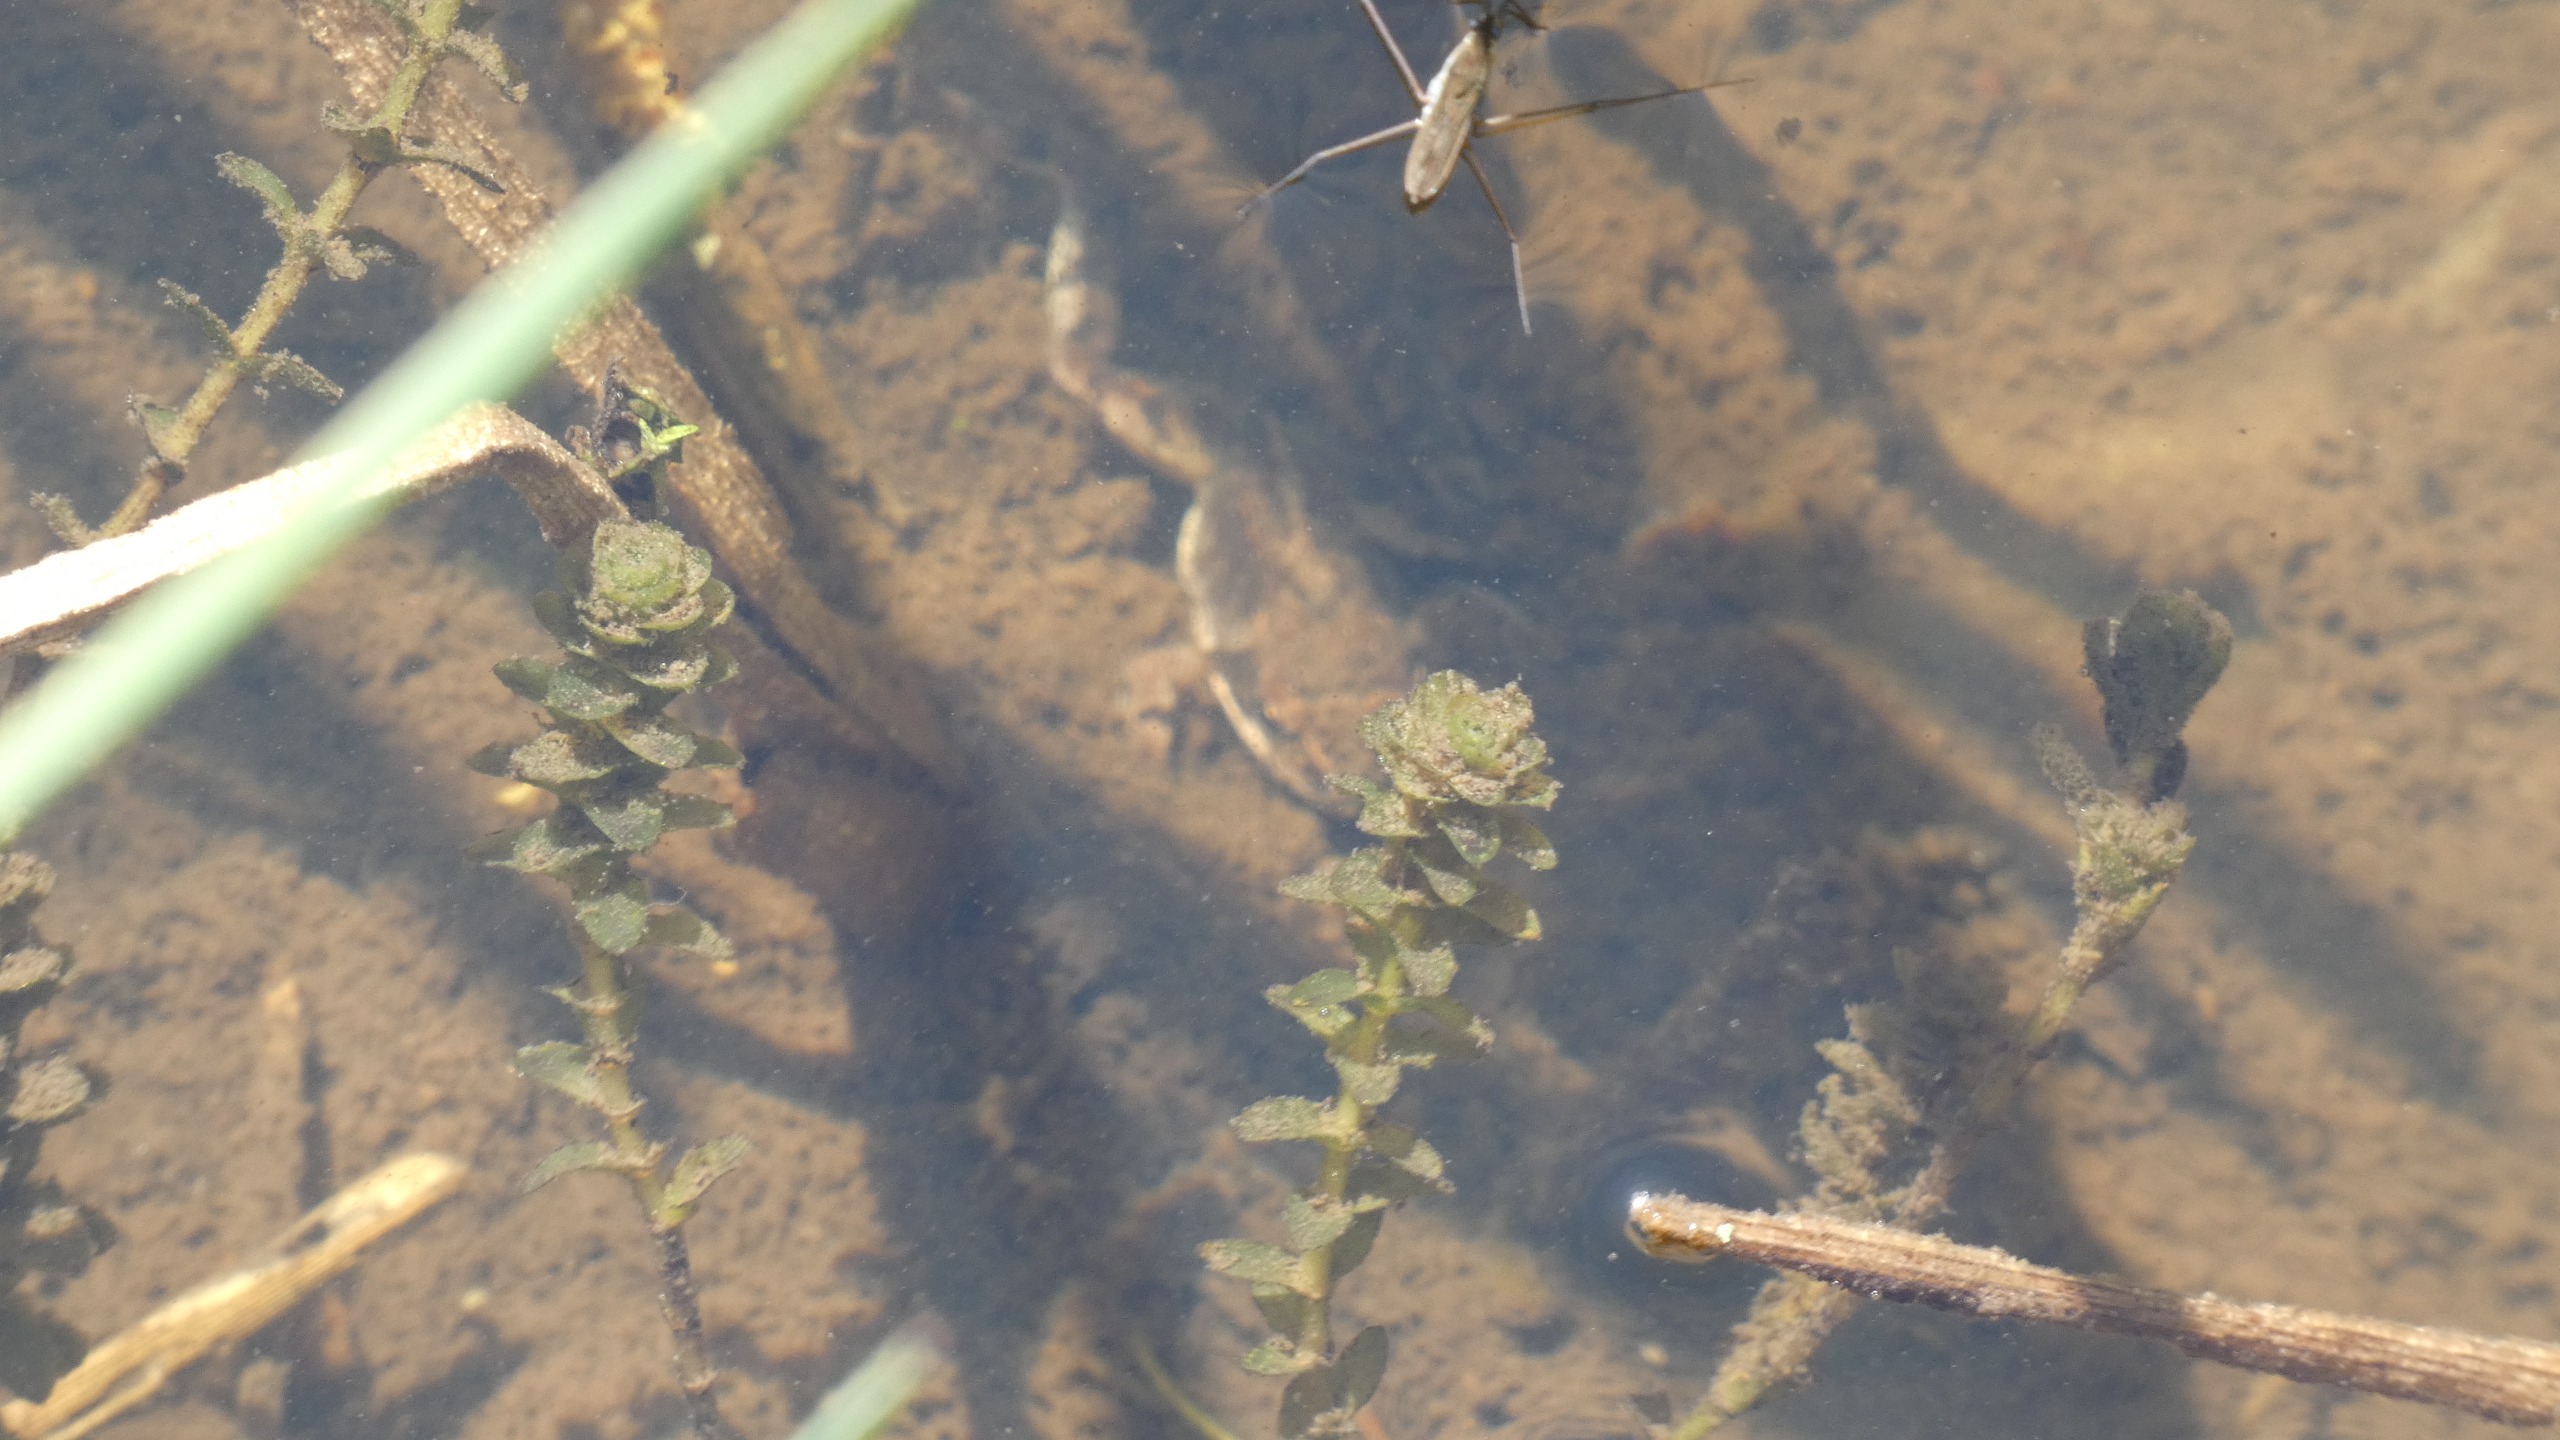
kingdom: Plantae
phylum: Tracheophyta
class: Liliopsida
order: Alismatales
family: Hydrocharitaceae
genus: Elodea
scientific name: Elodea canadensis
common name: Vandpest
